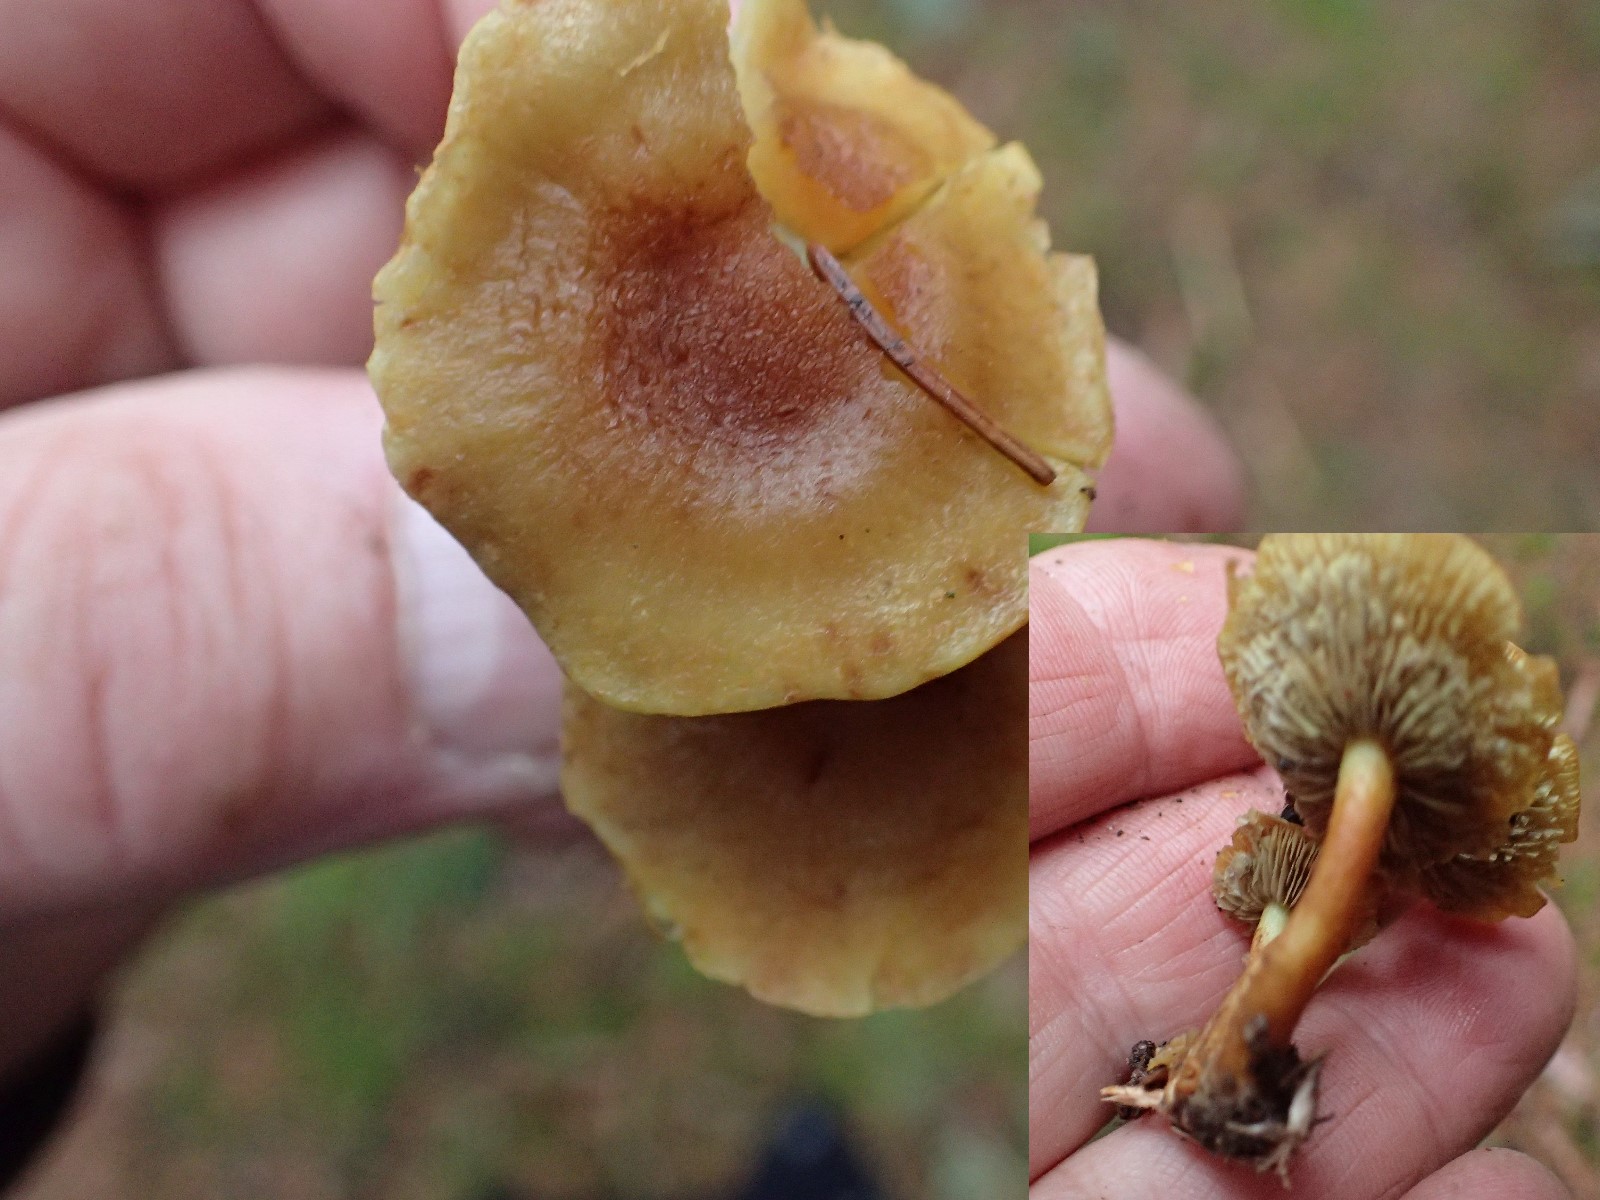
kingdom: Fungi
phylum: Basidiomycota
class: Agaricomycetes
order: Agaricales
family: Strophariaceae
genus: Hypholoma
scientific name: Hypholoma
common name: svovlhat
